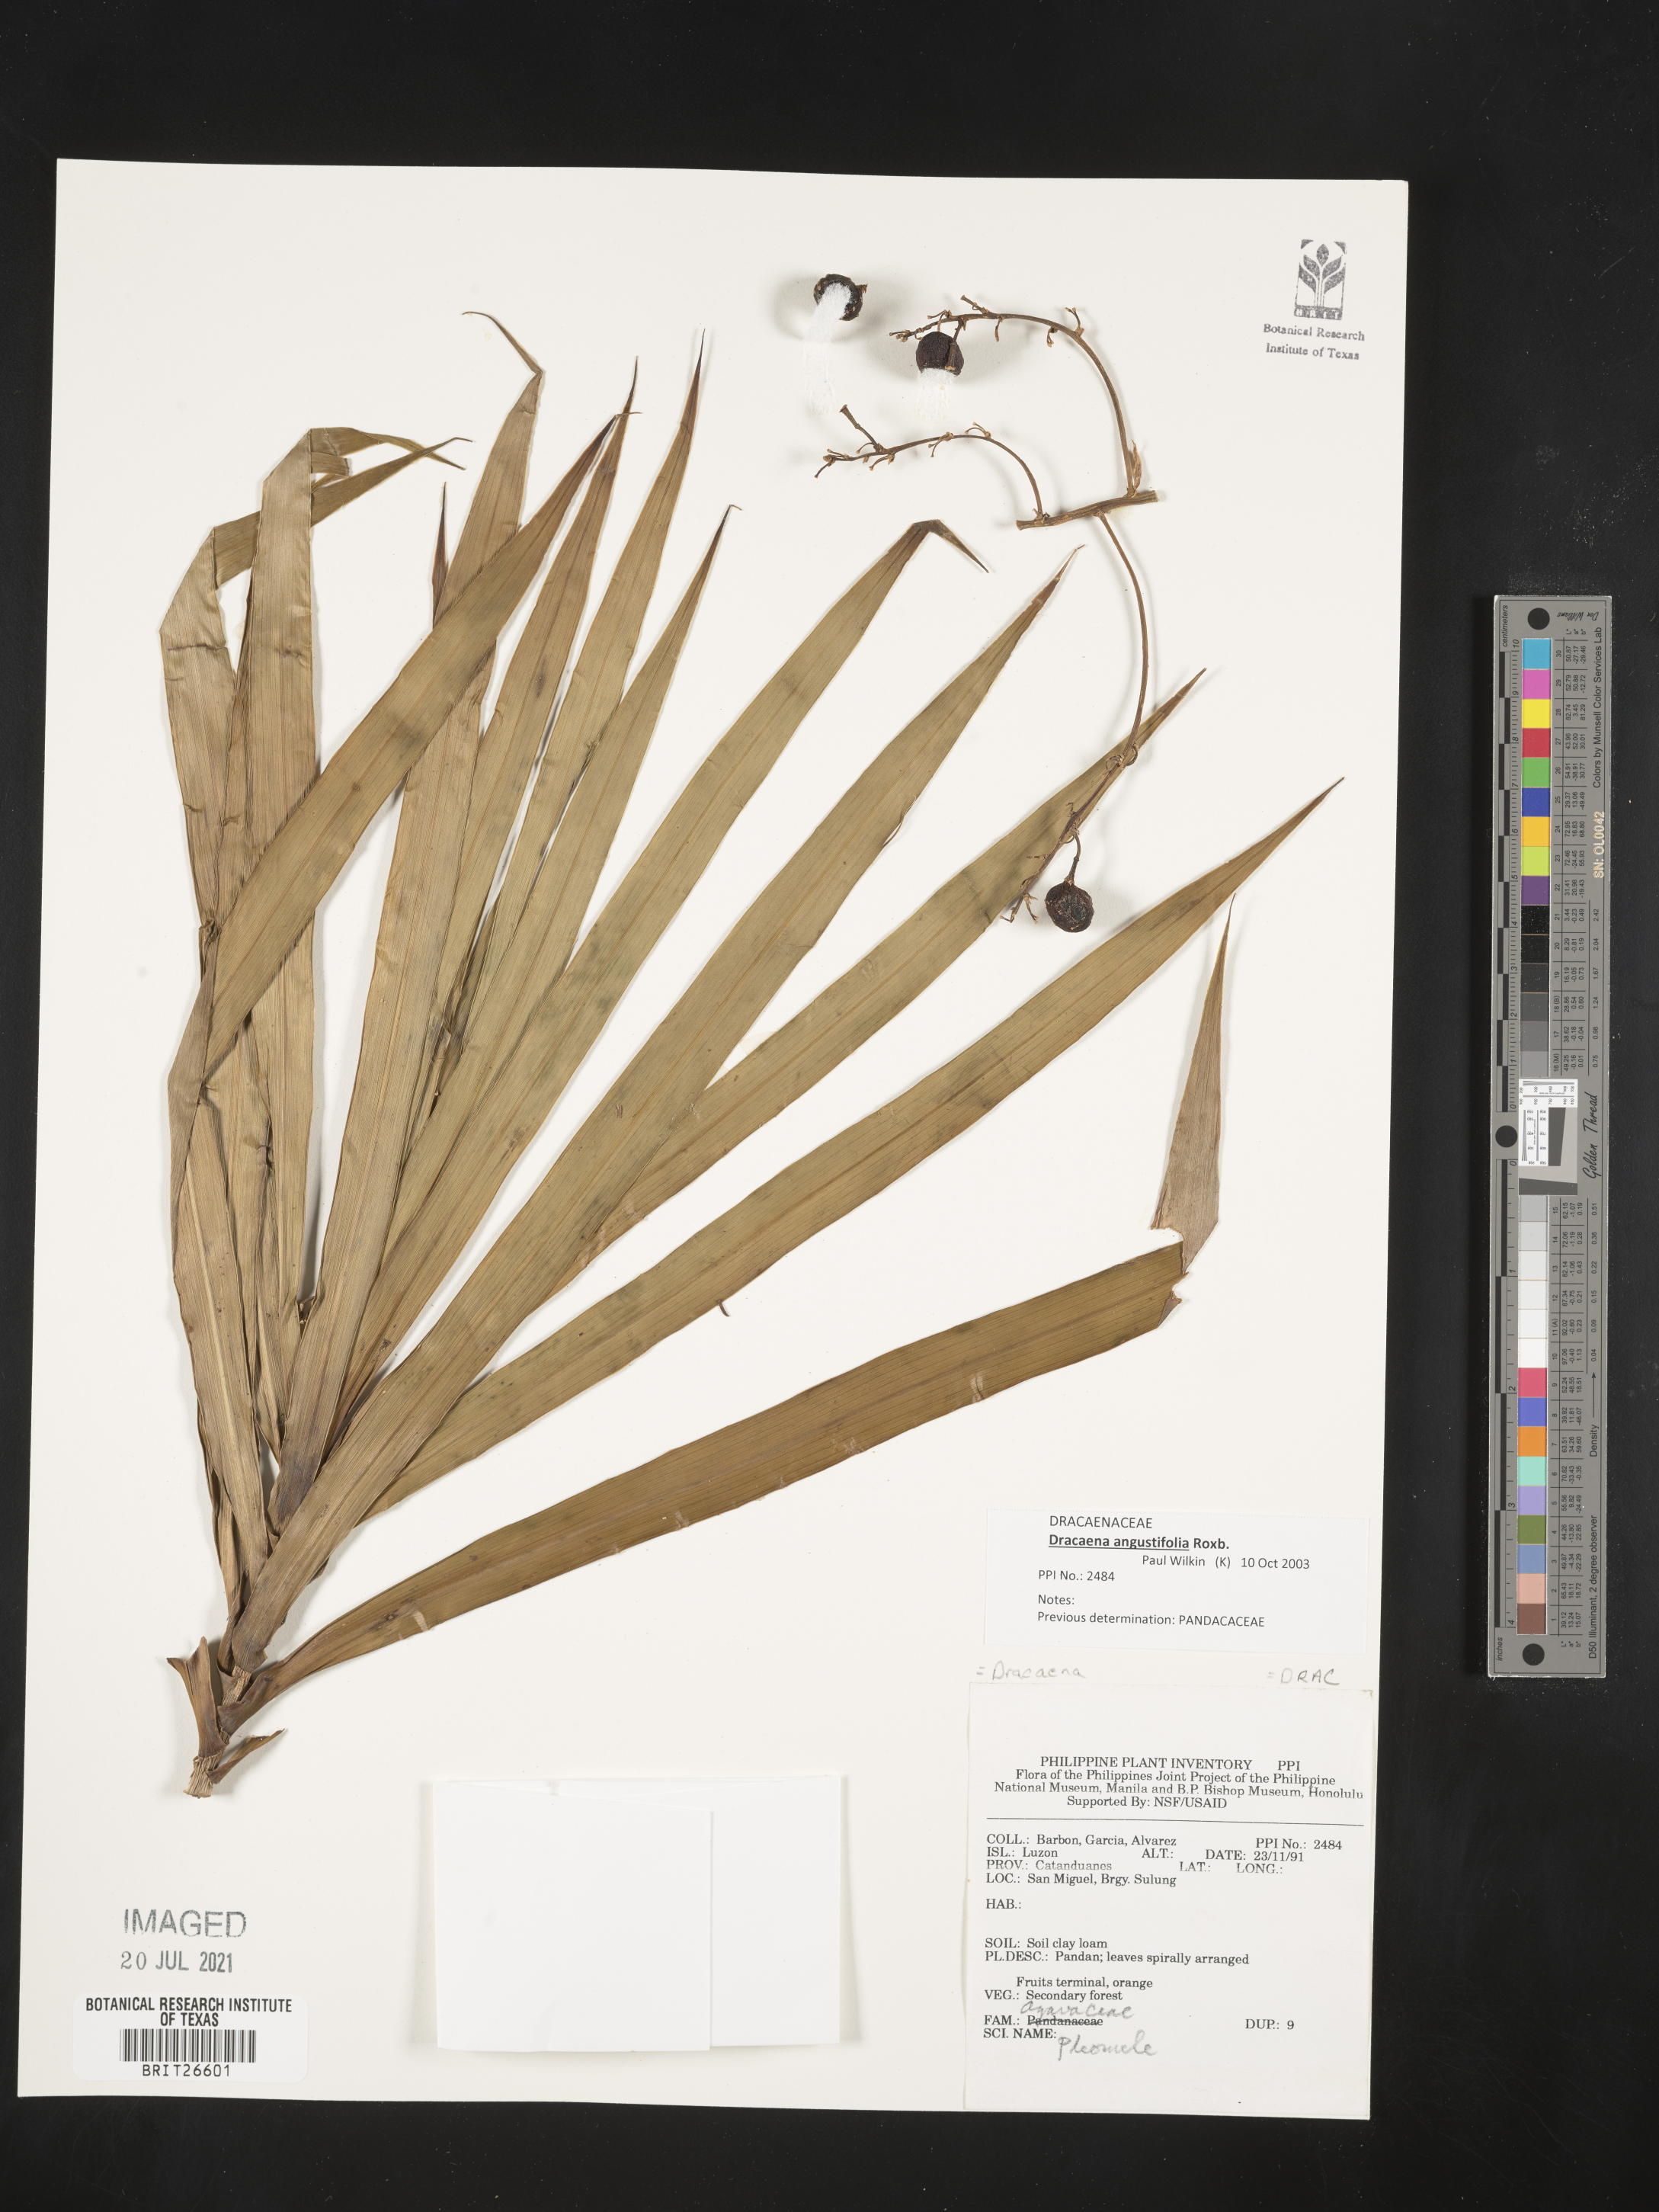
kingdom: Plantae
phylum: Tracheophyta
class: Liliopsida
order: Asparagales
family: Asparagaceae
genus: Dracaena
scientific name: Dracaena
